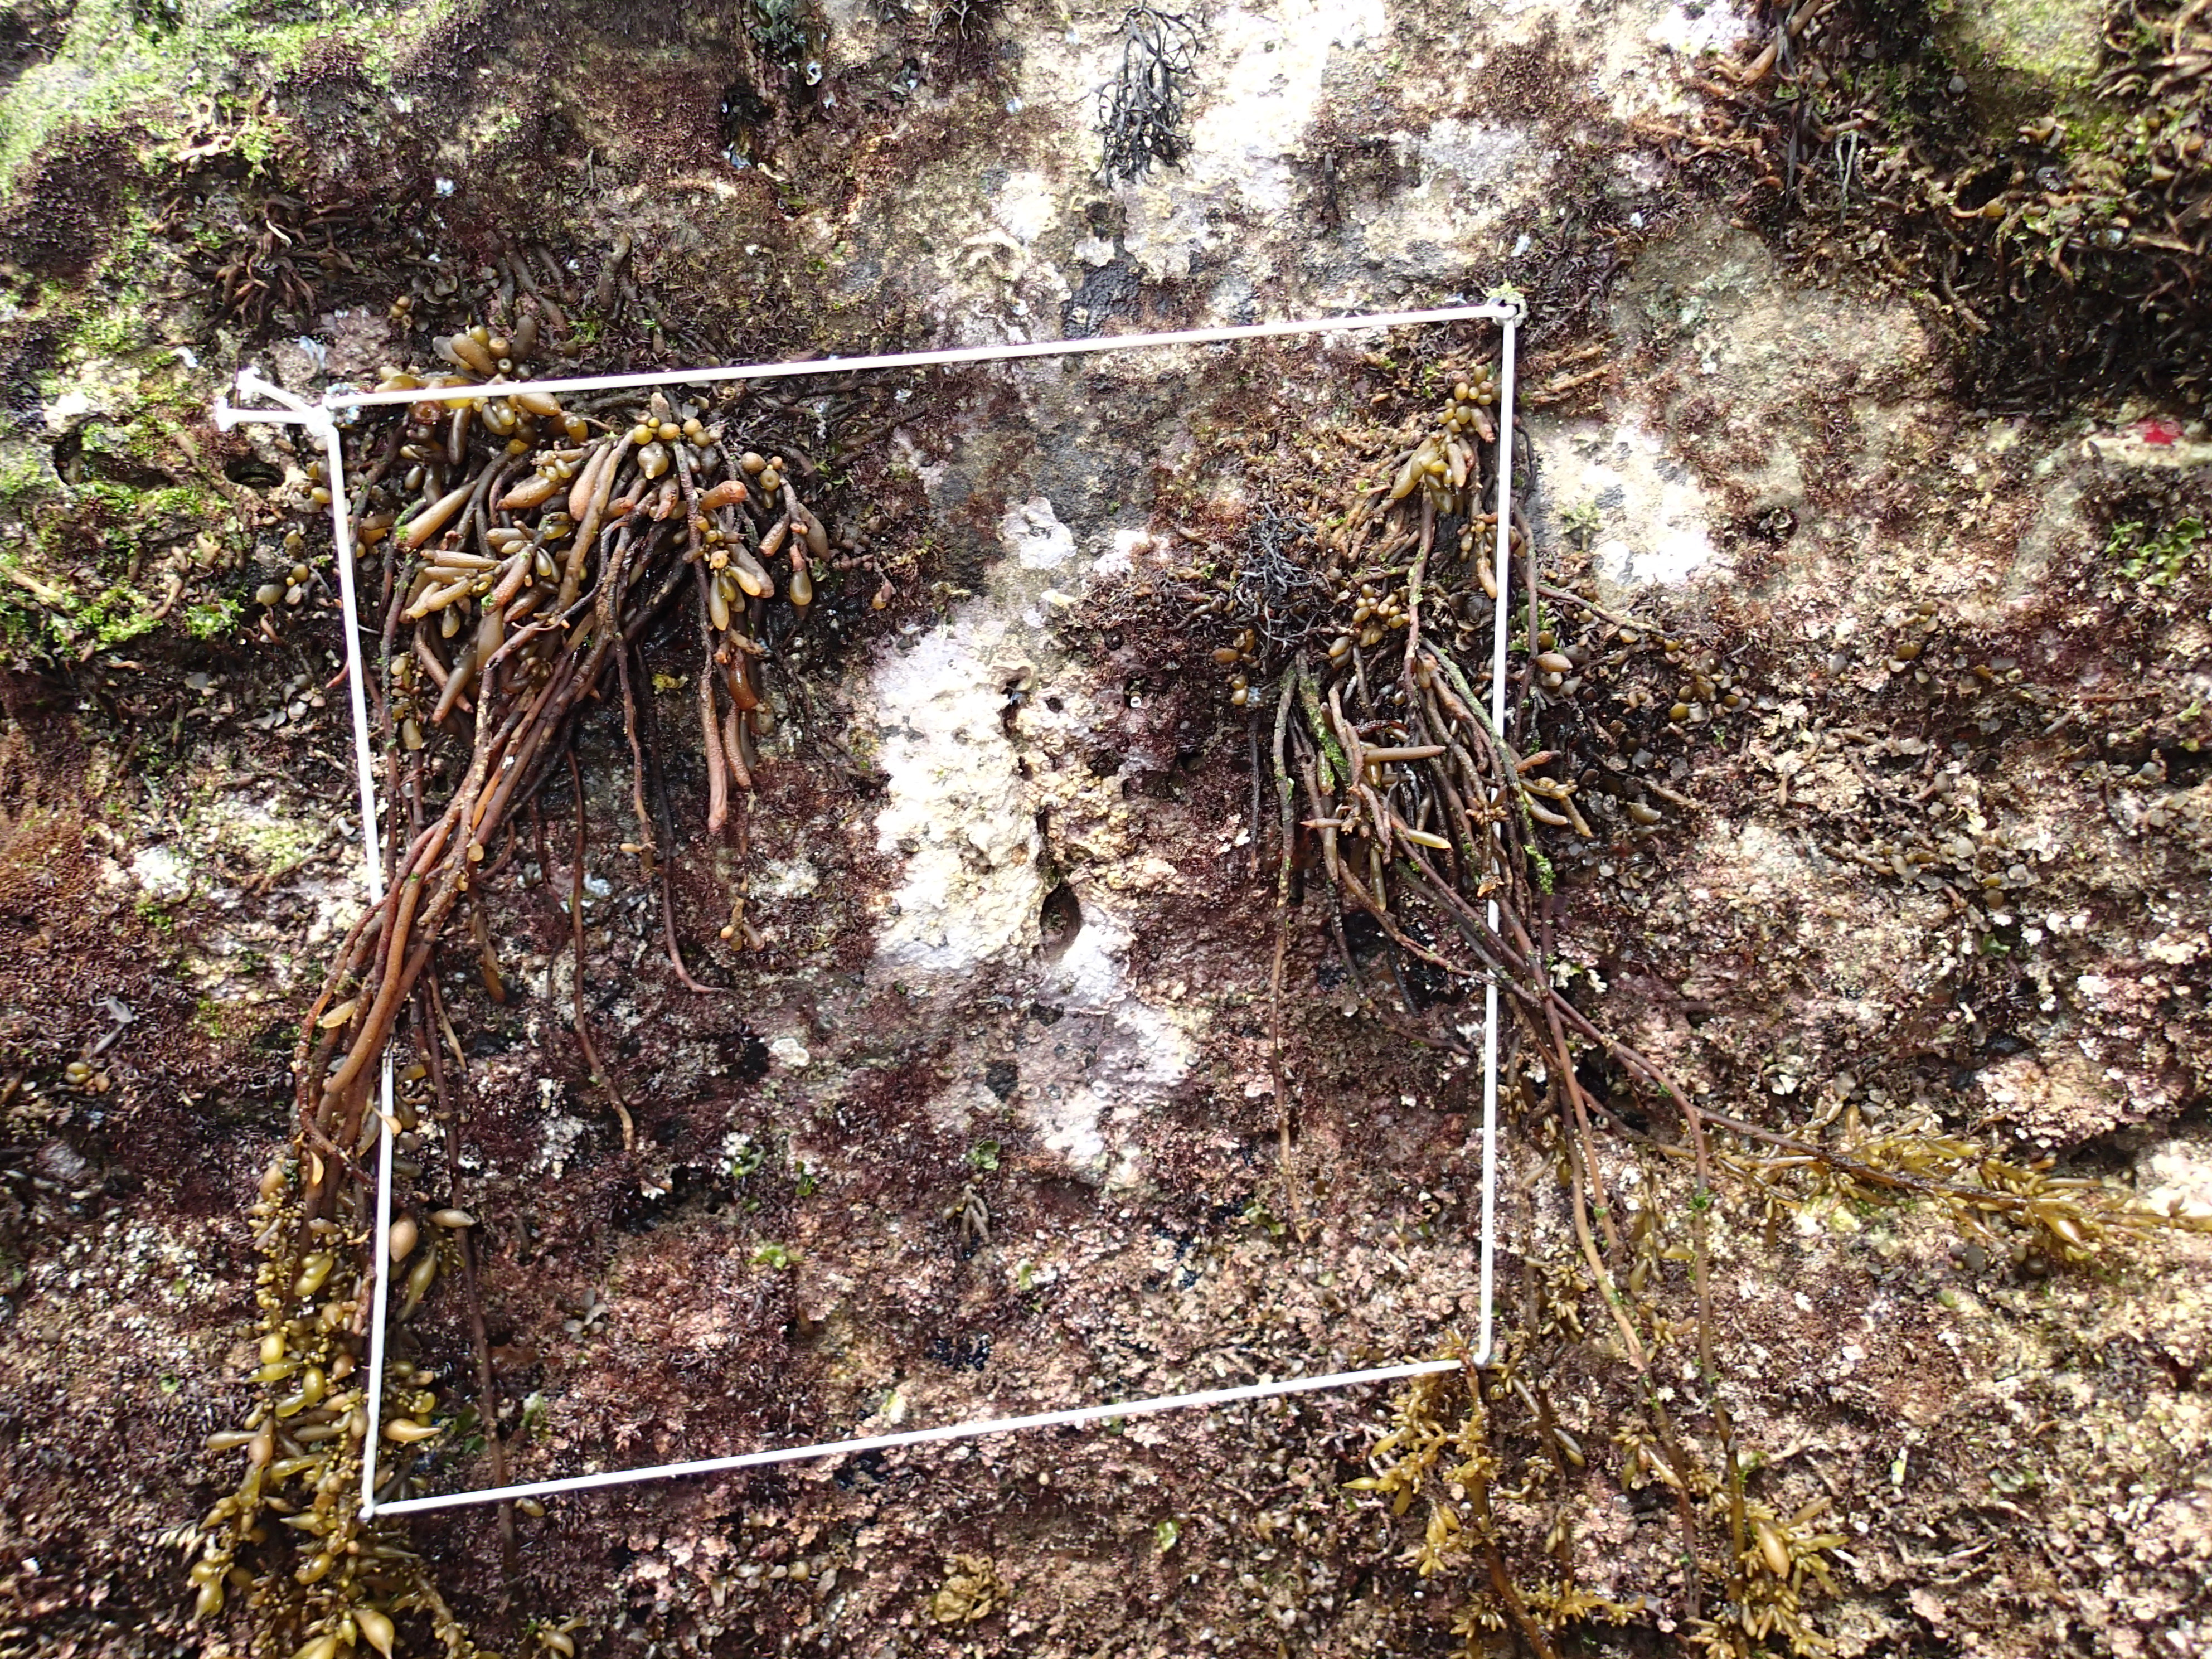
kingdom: Animalia
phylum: Arthropoda
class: Maxillopoda
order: Sessilia
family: Chthamalidae
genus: Chthamalus
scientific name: Chthamalus challengeri
